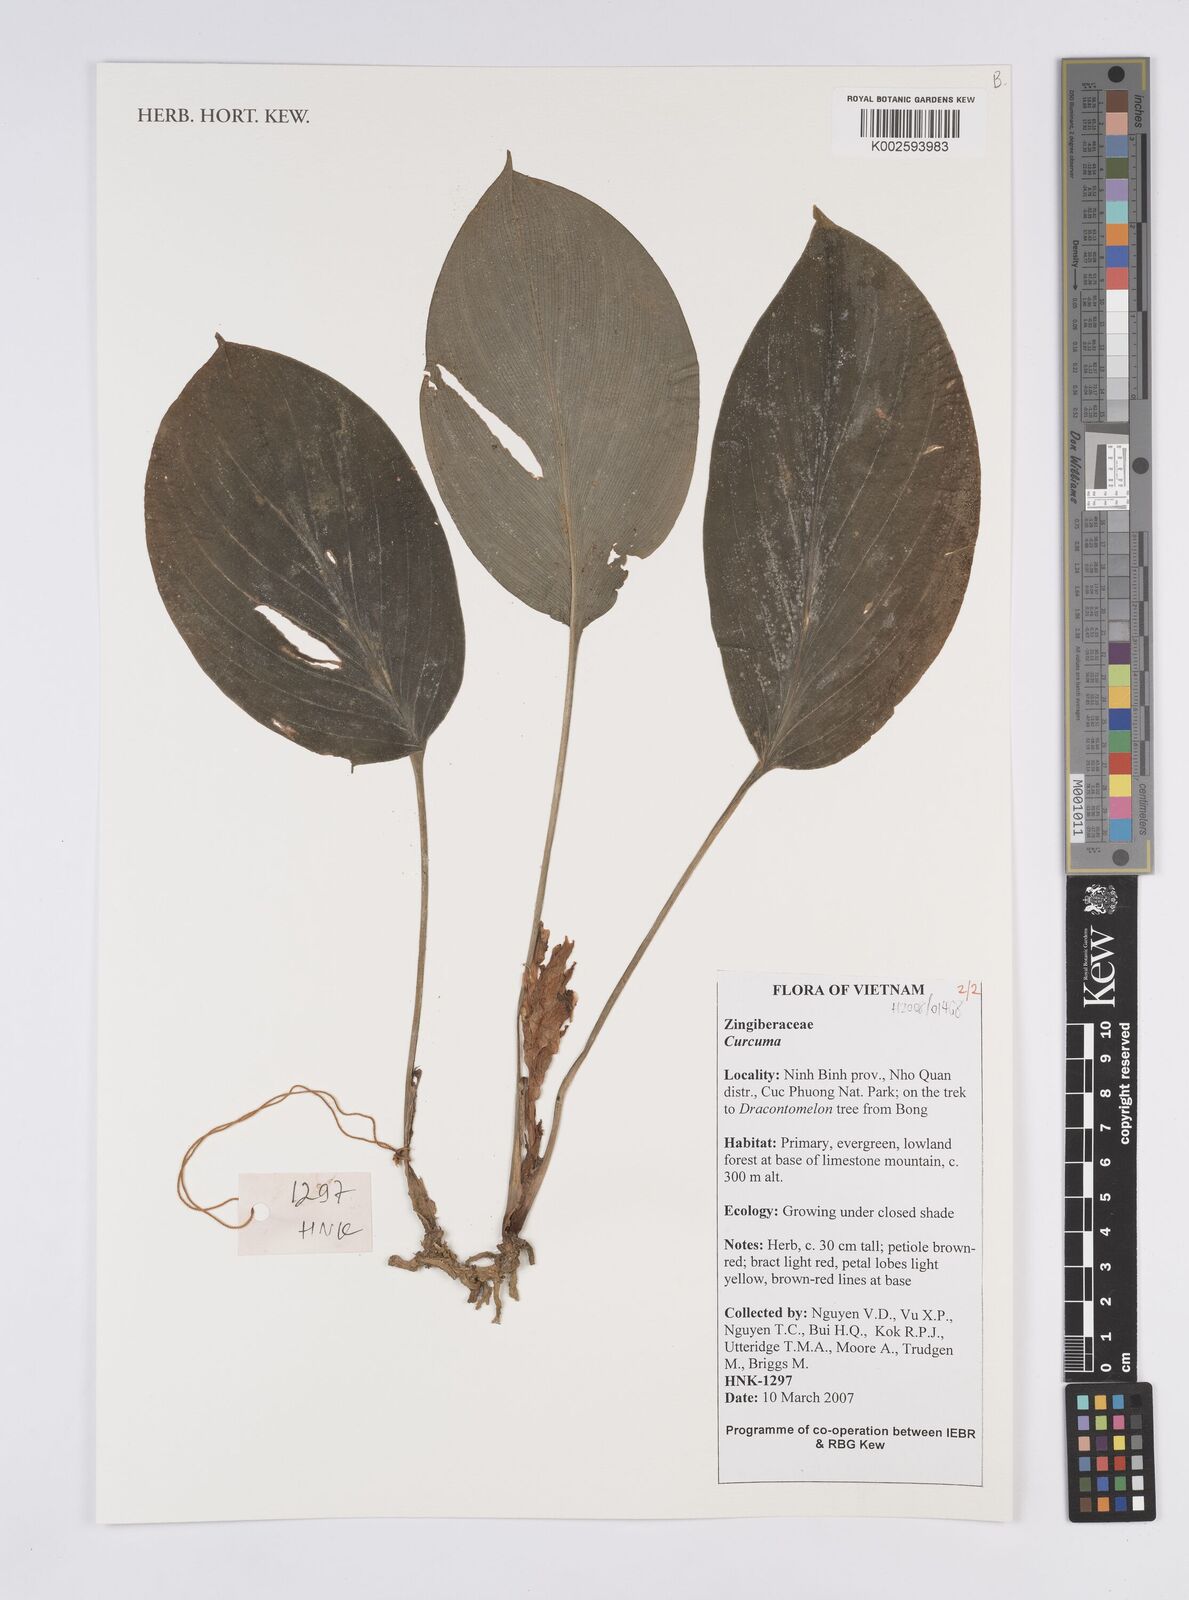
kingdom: Plantae
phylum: Tracheophyta
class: Liliopsida
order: Zingiberales
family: Zingiberaceae
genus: Curcuma
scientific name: Curcuma
